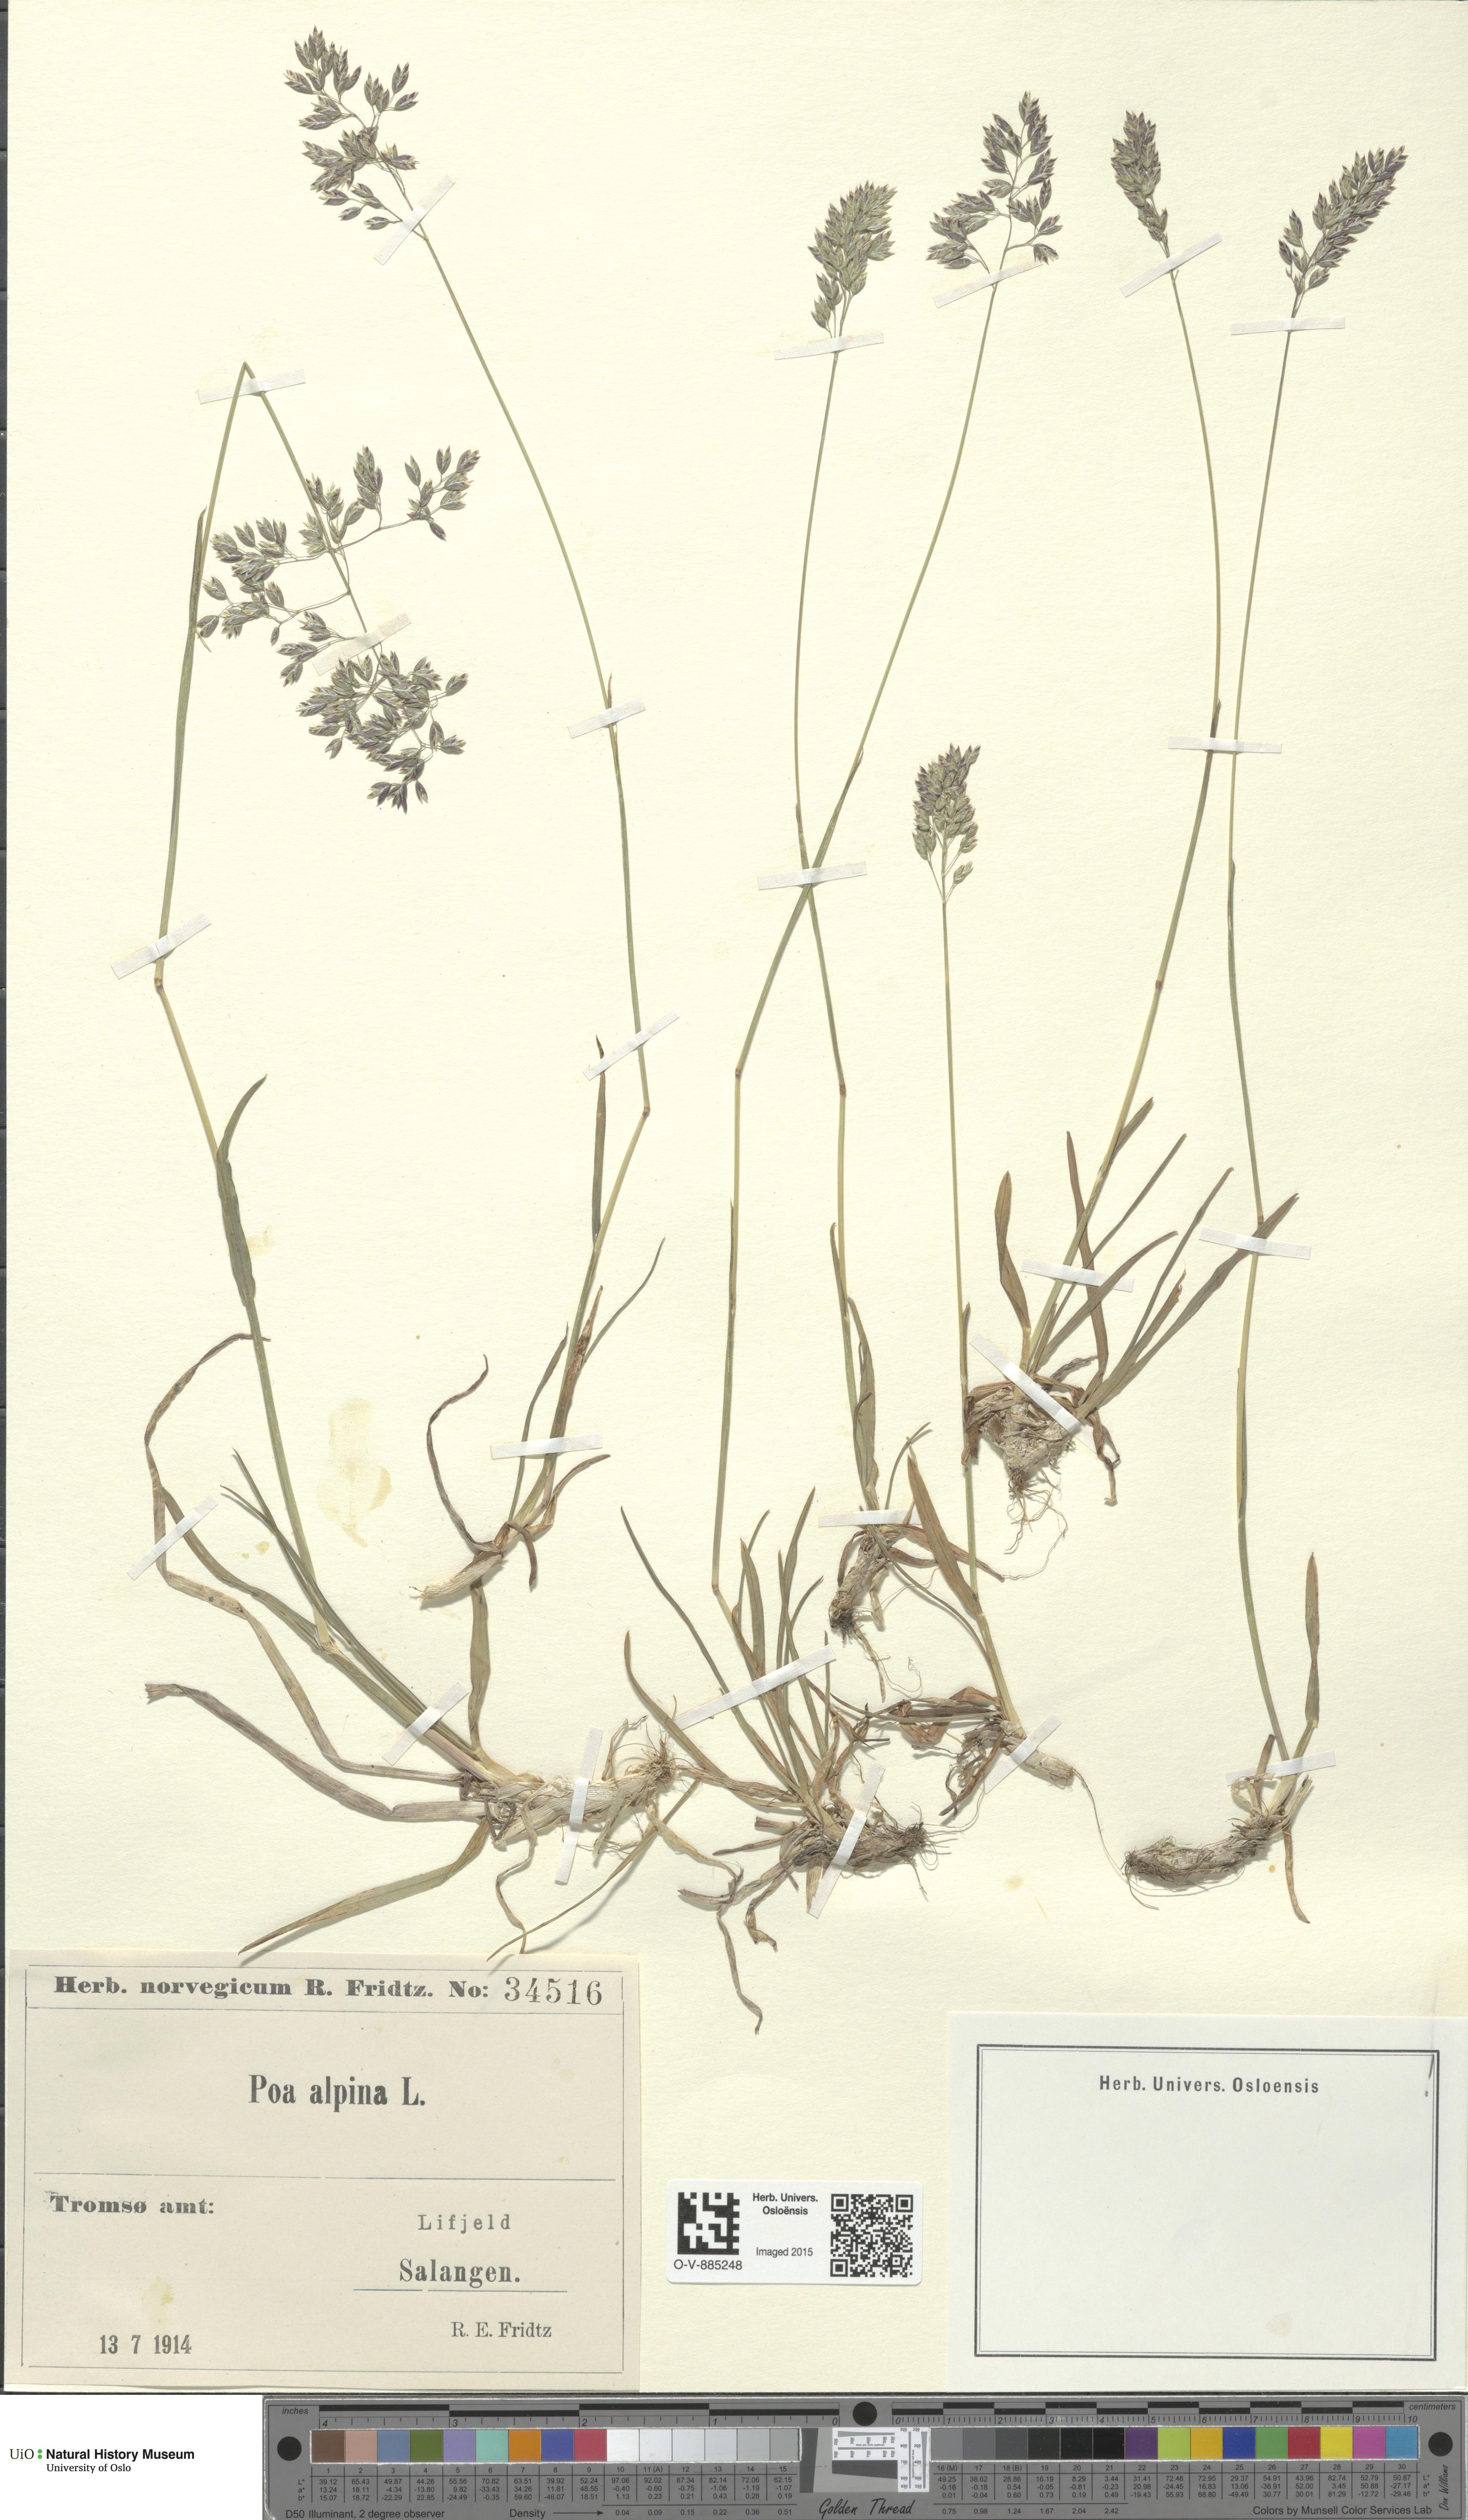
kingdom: Plantae
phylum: Tracheophyta
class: Liliopsida
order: Poales
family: Poaceae
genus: Poa
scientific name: Poa alpina
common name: Alpine bluegrass
